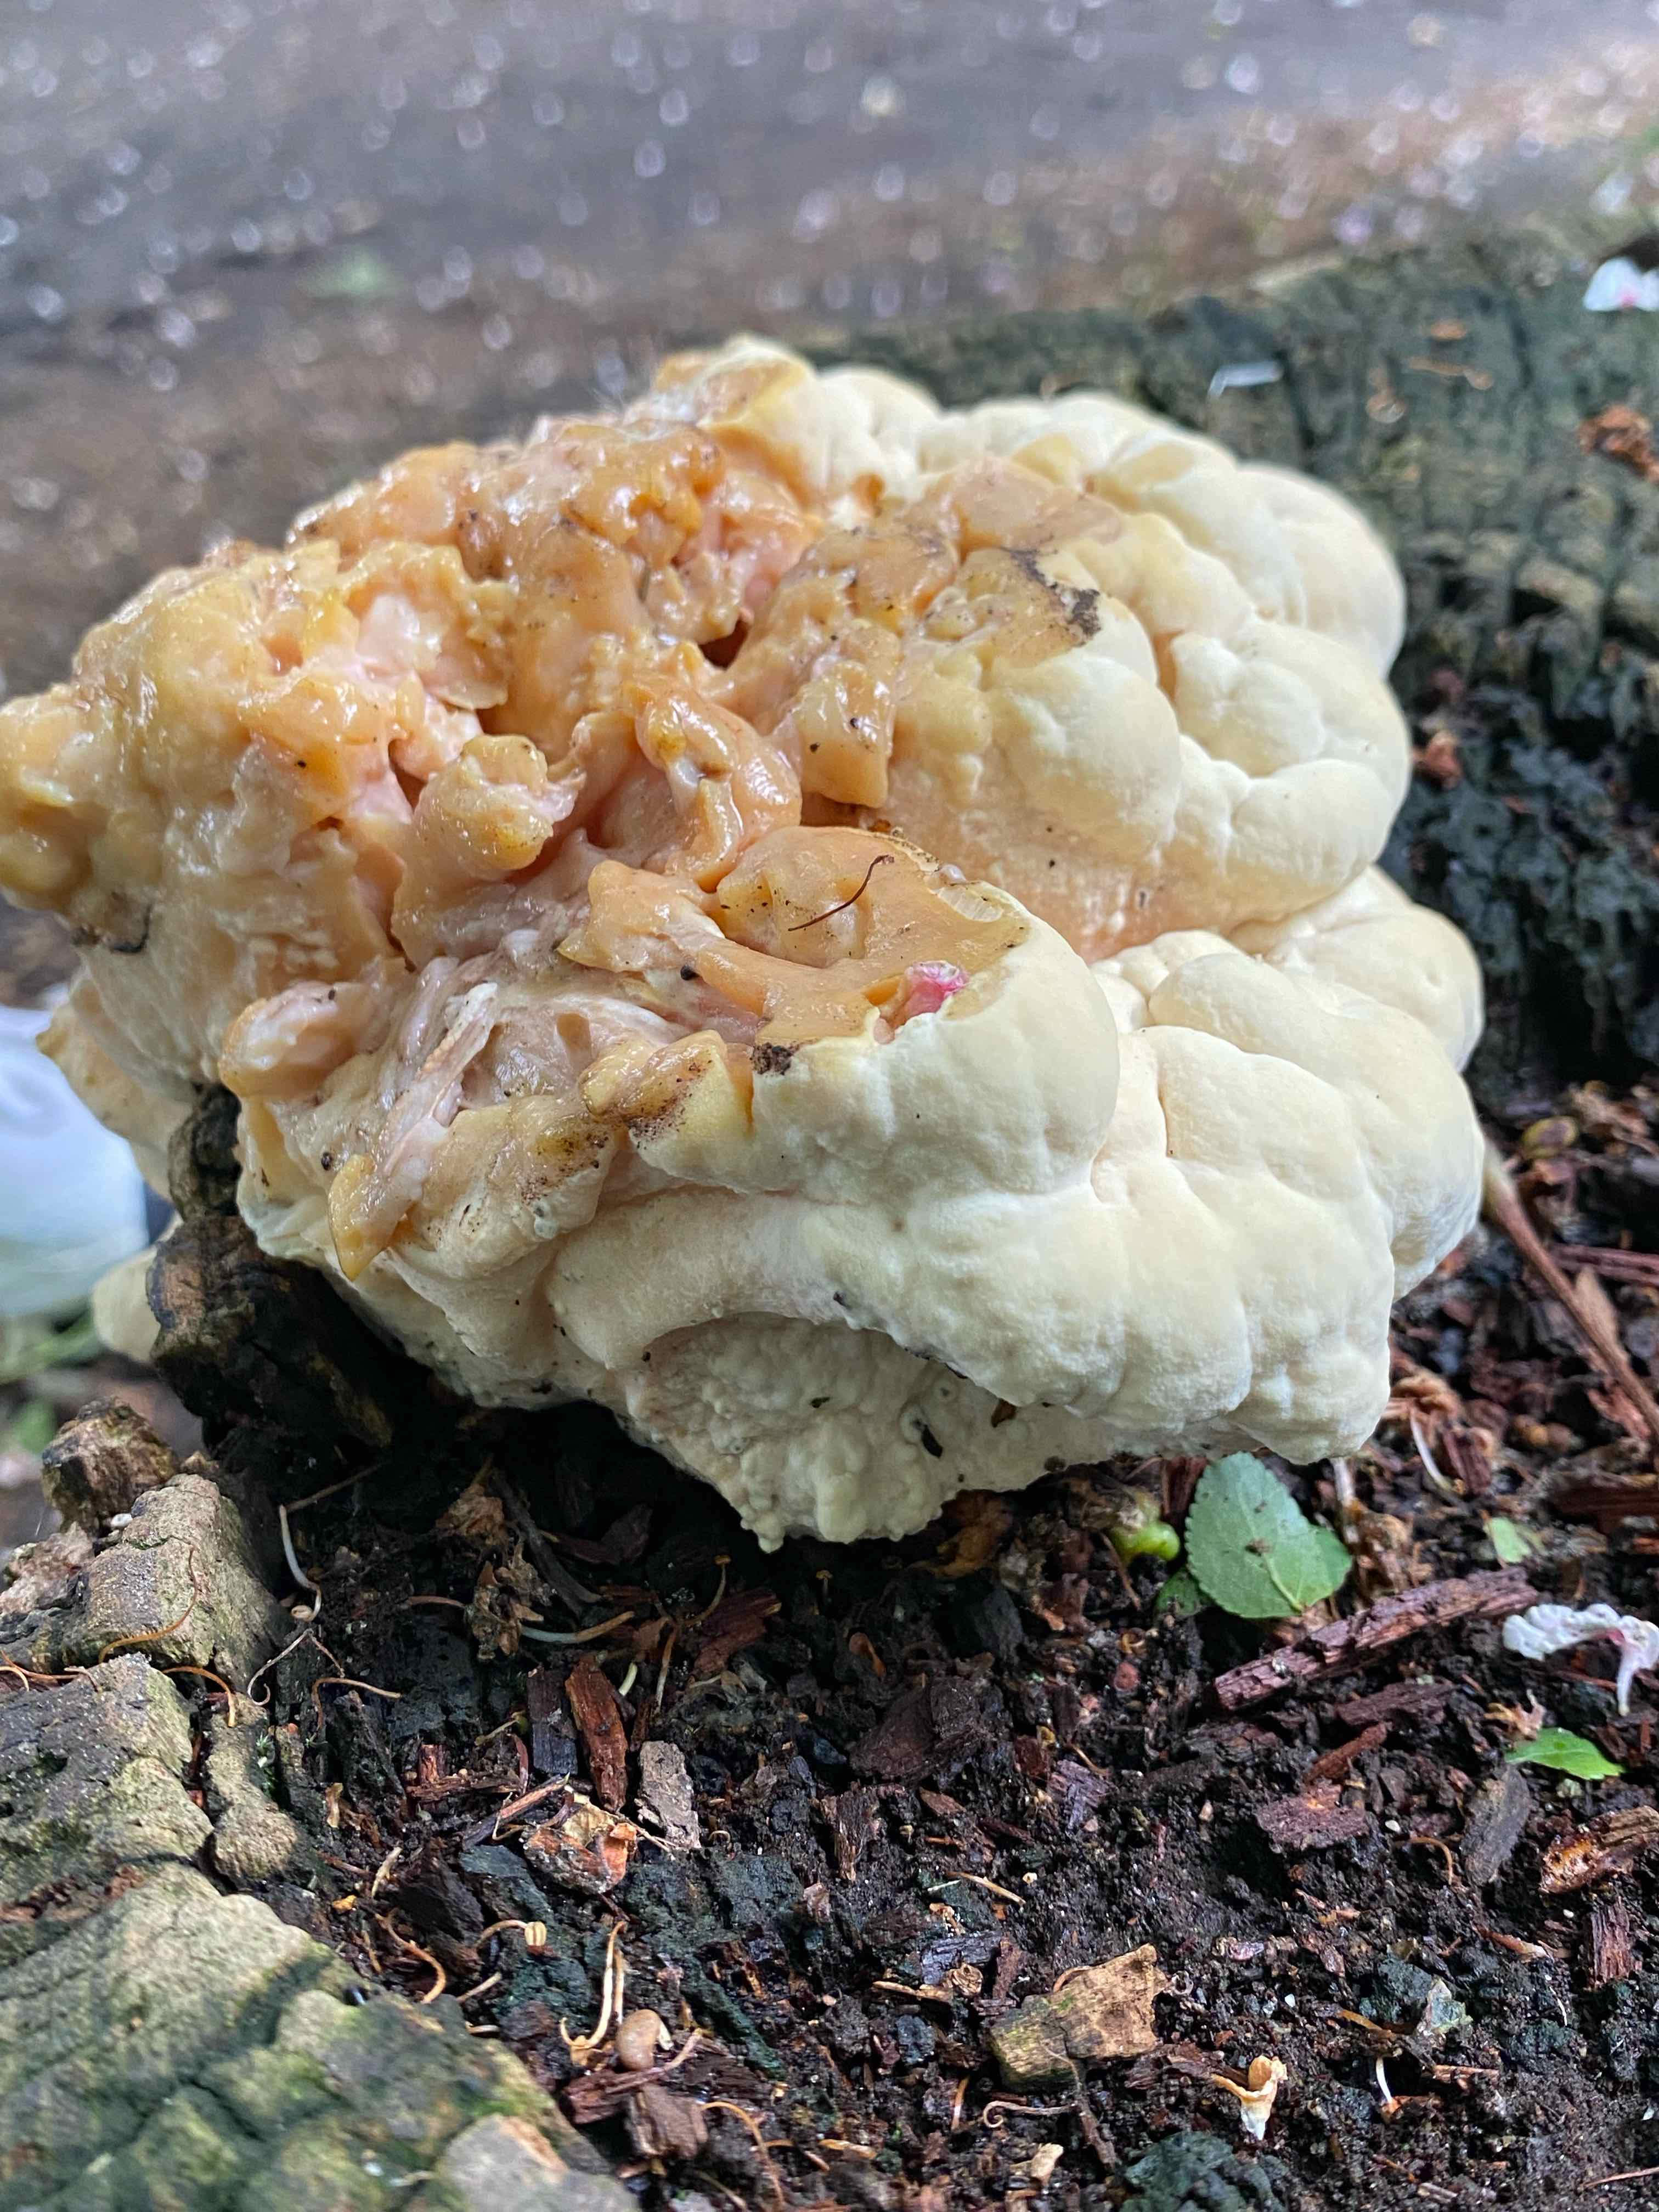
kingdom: Fungi
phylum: Basidiomycota
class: Agaricomycetes
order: Polyporales
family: Laetiporaceae
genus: Laetiporus
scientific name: Laetiporus sulphureus
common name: svovlporesvamp
